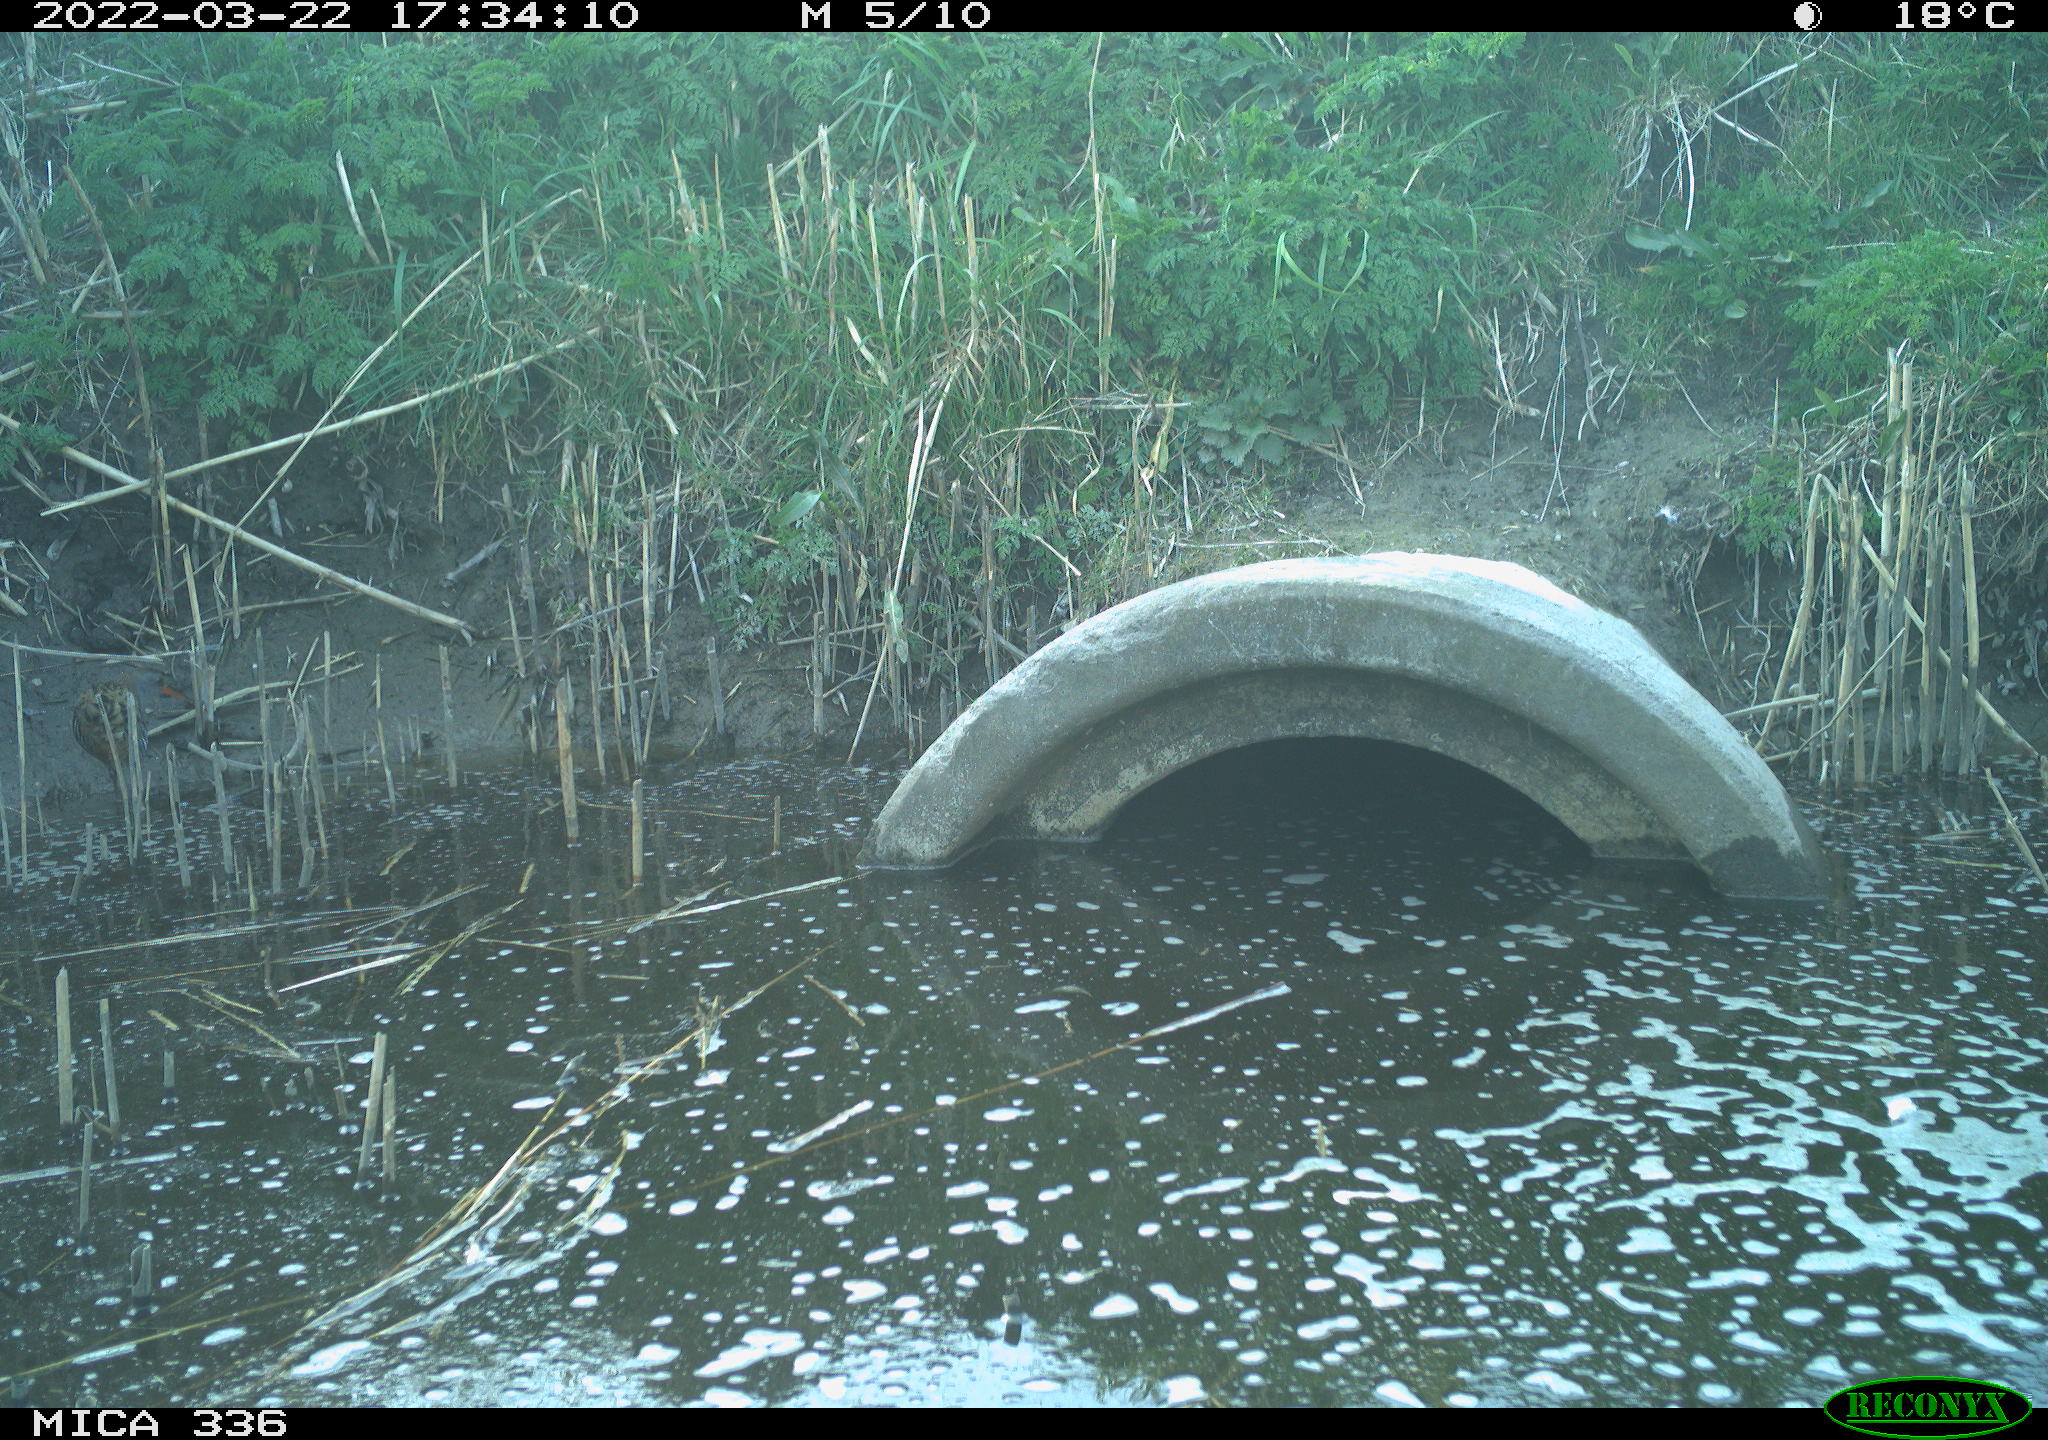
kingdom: Animalia
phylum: Chordata
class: Aves
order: Gruiformes
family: Rallidae
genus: Gallinula
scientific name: Gallinula chloropus
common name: Common moorhen
